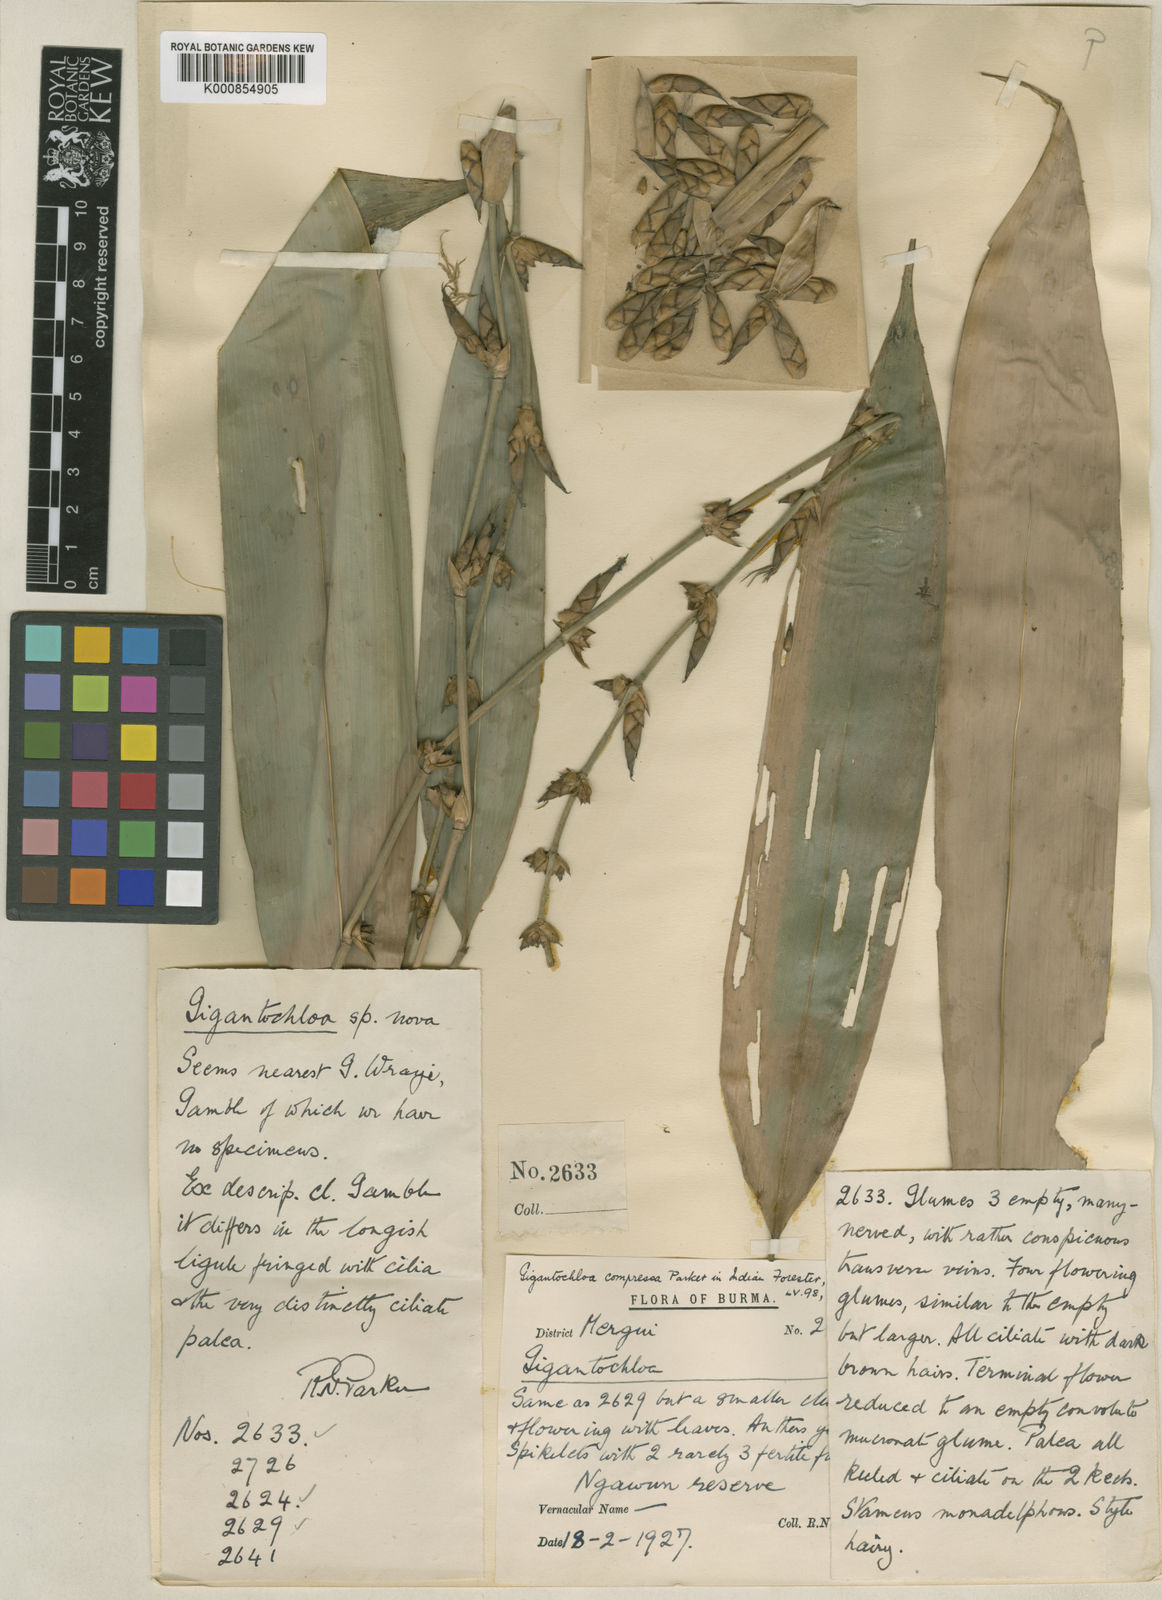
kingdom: Plantae
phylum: Tracheophyta
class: Liliopsida
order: Poales
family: Poaceae
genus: Gigantochloa
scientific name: Gigantochloa compressa
